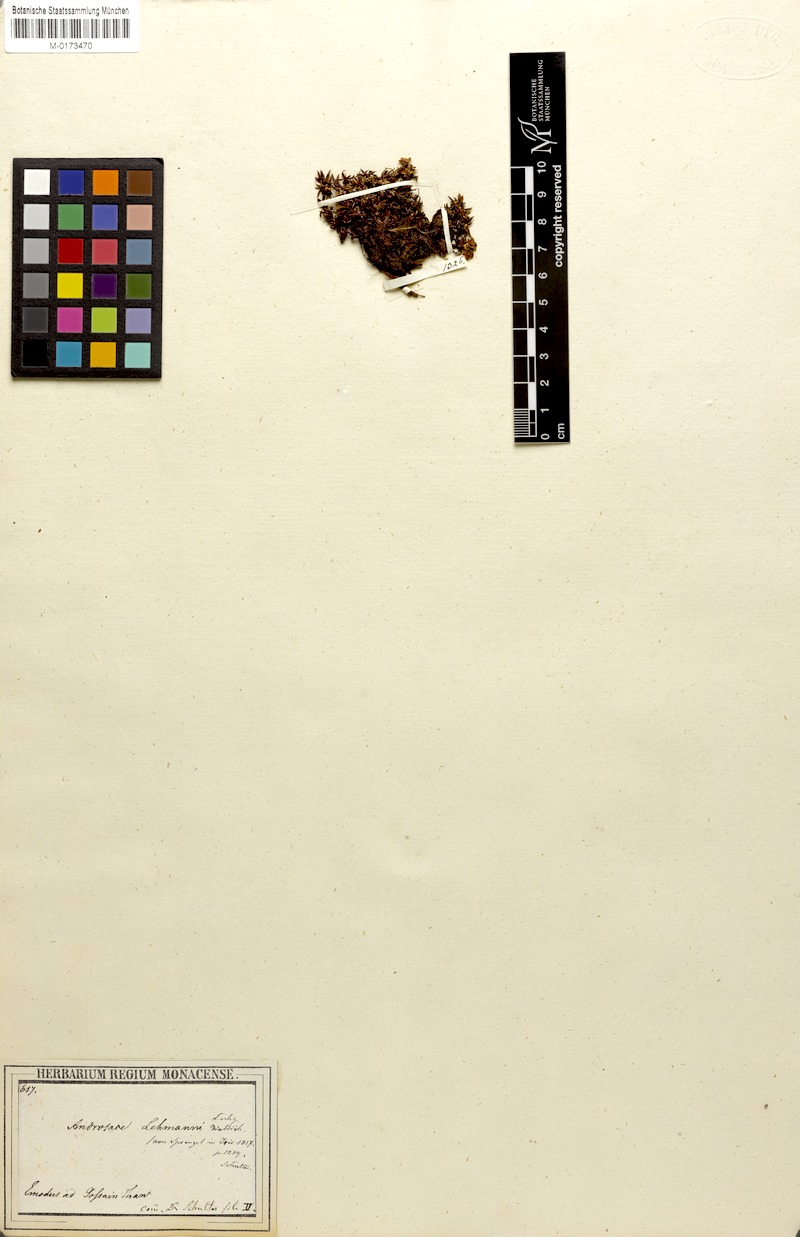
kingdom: Plantae
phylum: Tracheophyta
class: Magnoliopsida
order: Ericales
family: Primulaceae
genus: Androsace
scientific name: Androsace lehmannii
